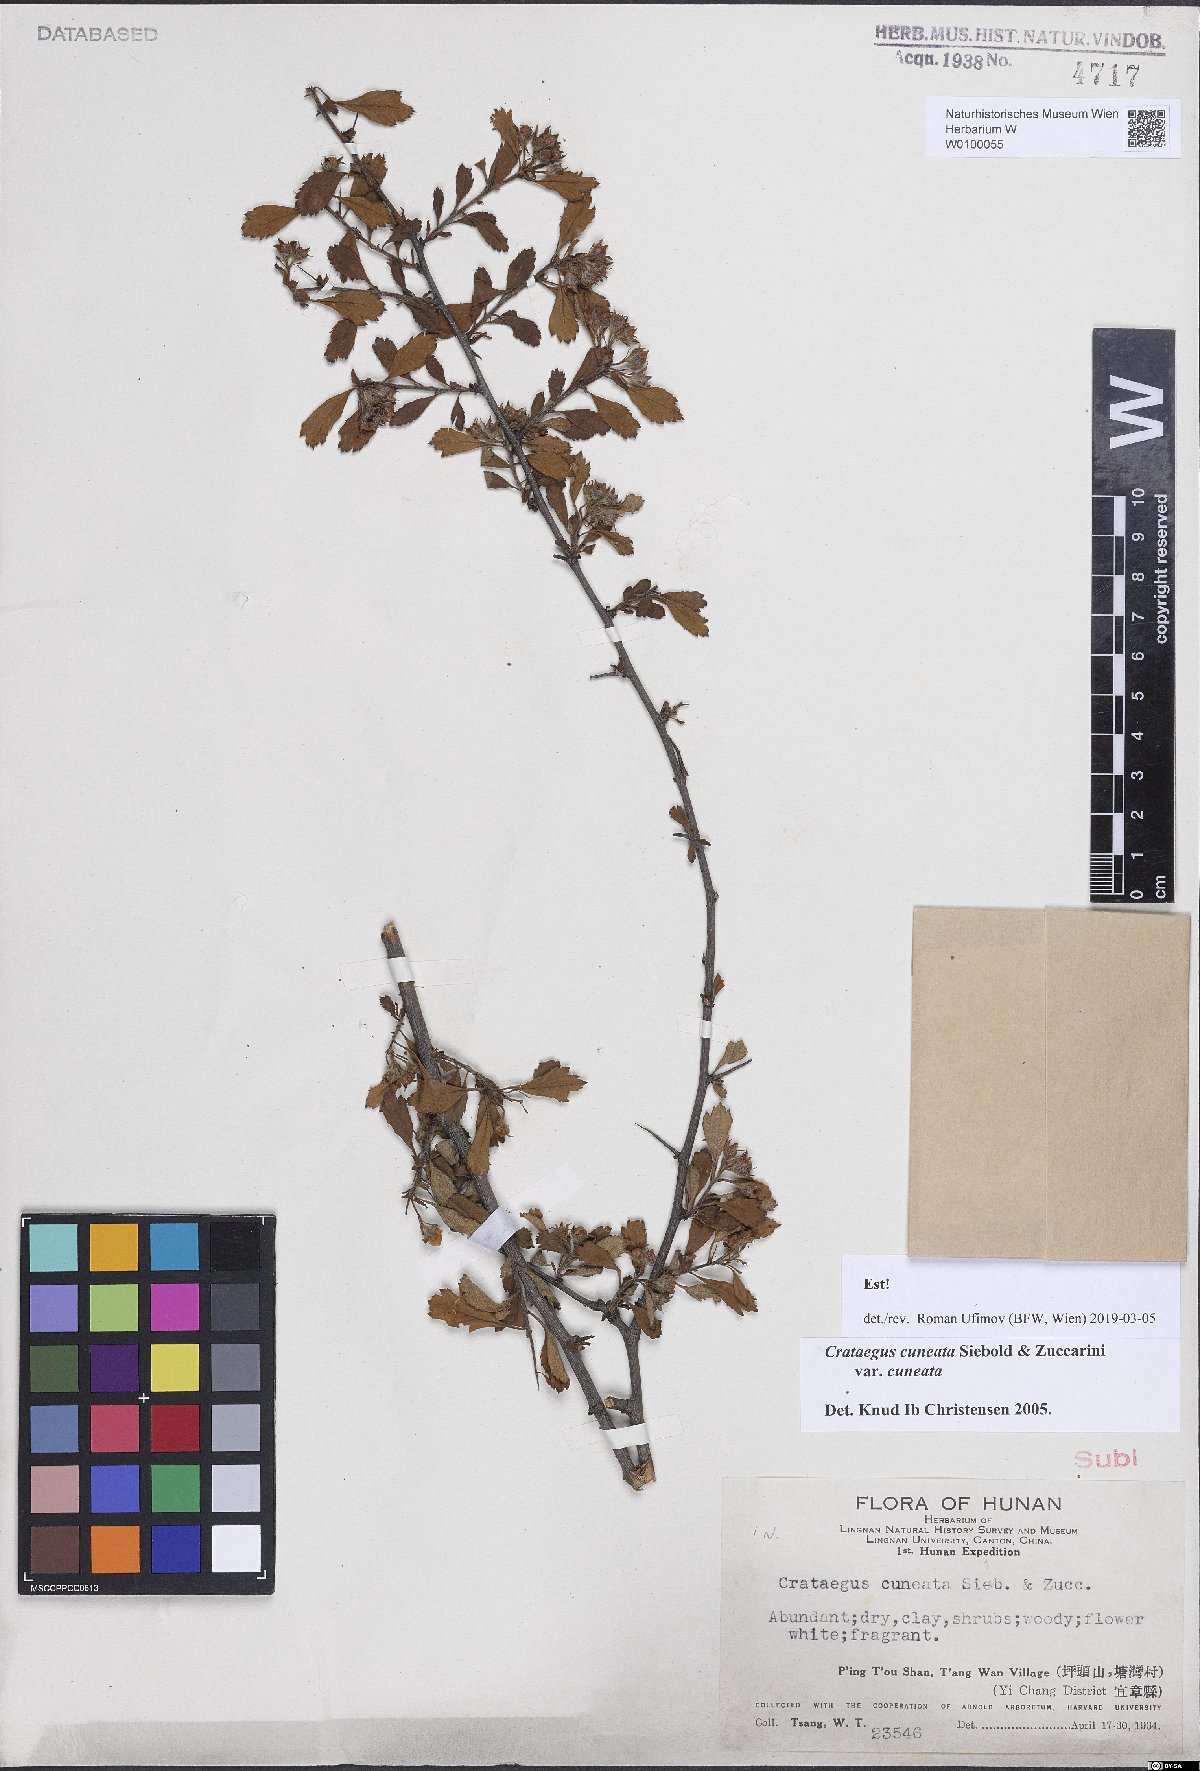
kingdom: Plantae
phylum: Tracheophyta
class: Magnoliopsida
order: Rosales
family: Rosaceae
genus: Crataegus
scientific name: Crataegus cuneata
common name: Chinese hawthorn
